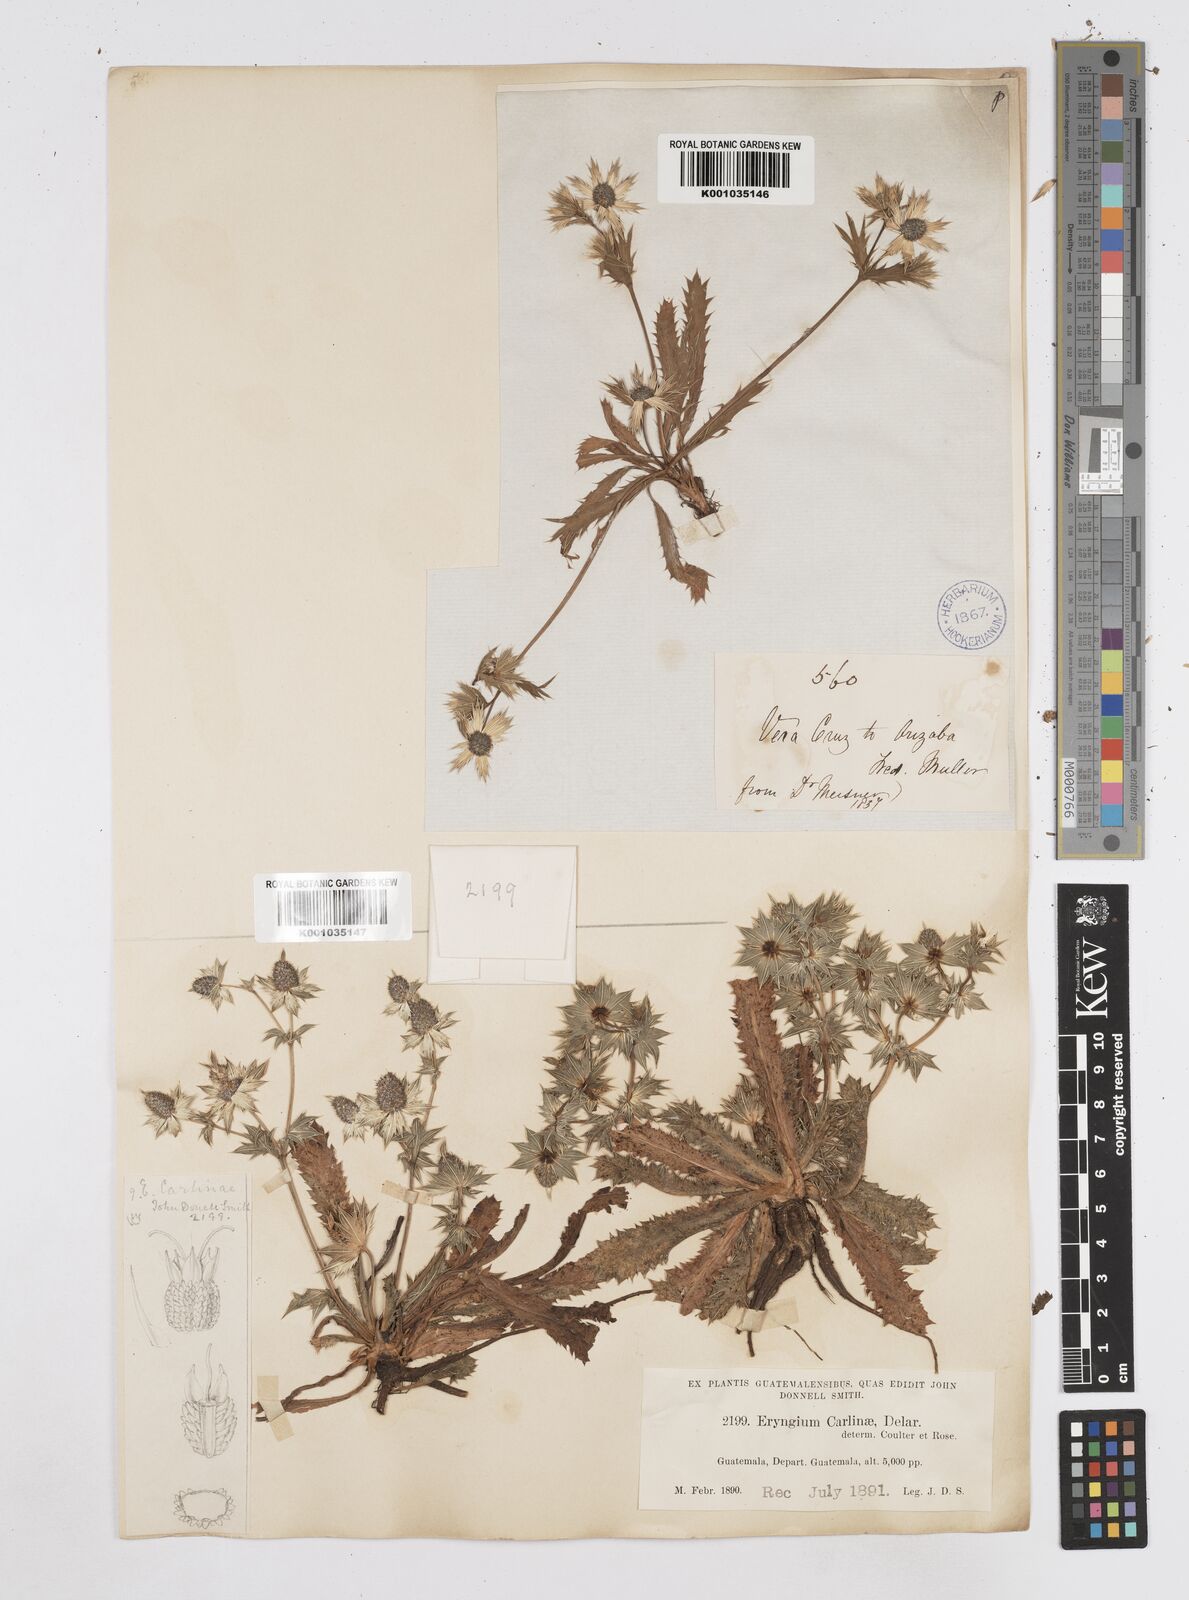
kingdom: Plantae
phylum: Tracheophyta
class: Magnoliopsida
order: Apiales
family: Apiaceae
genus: Eryngium
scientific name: Eryngium carlinae
